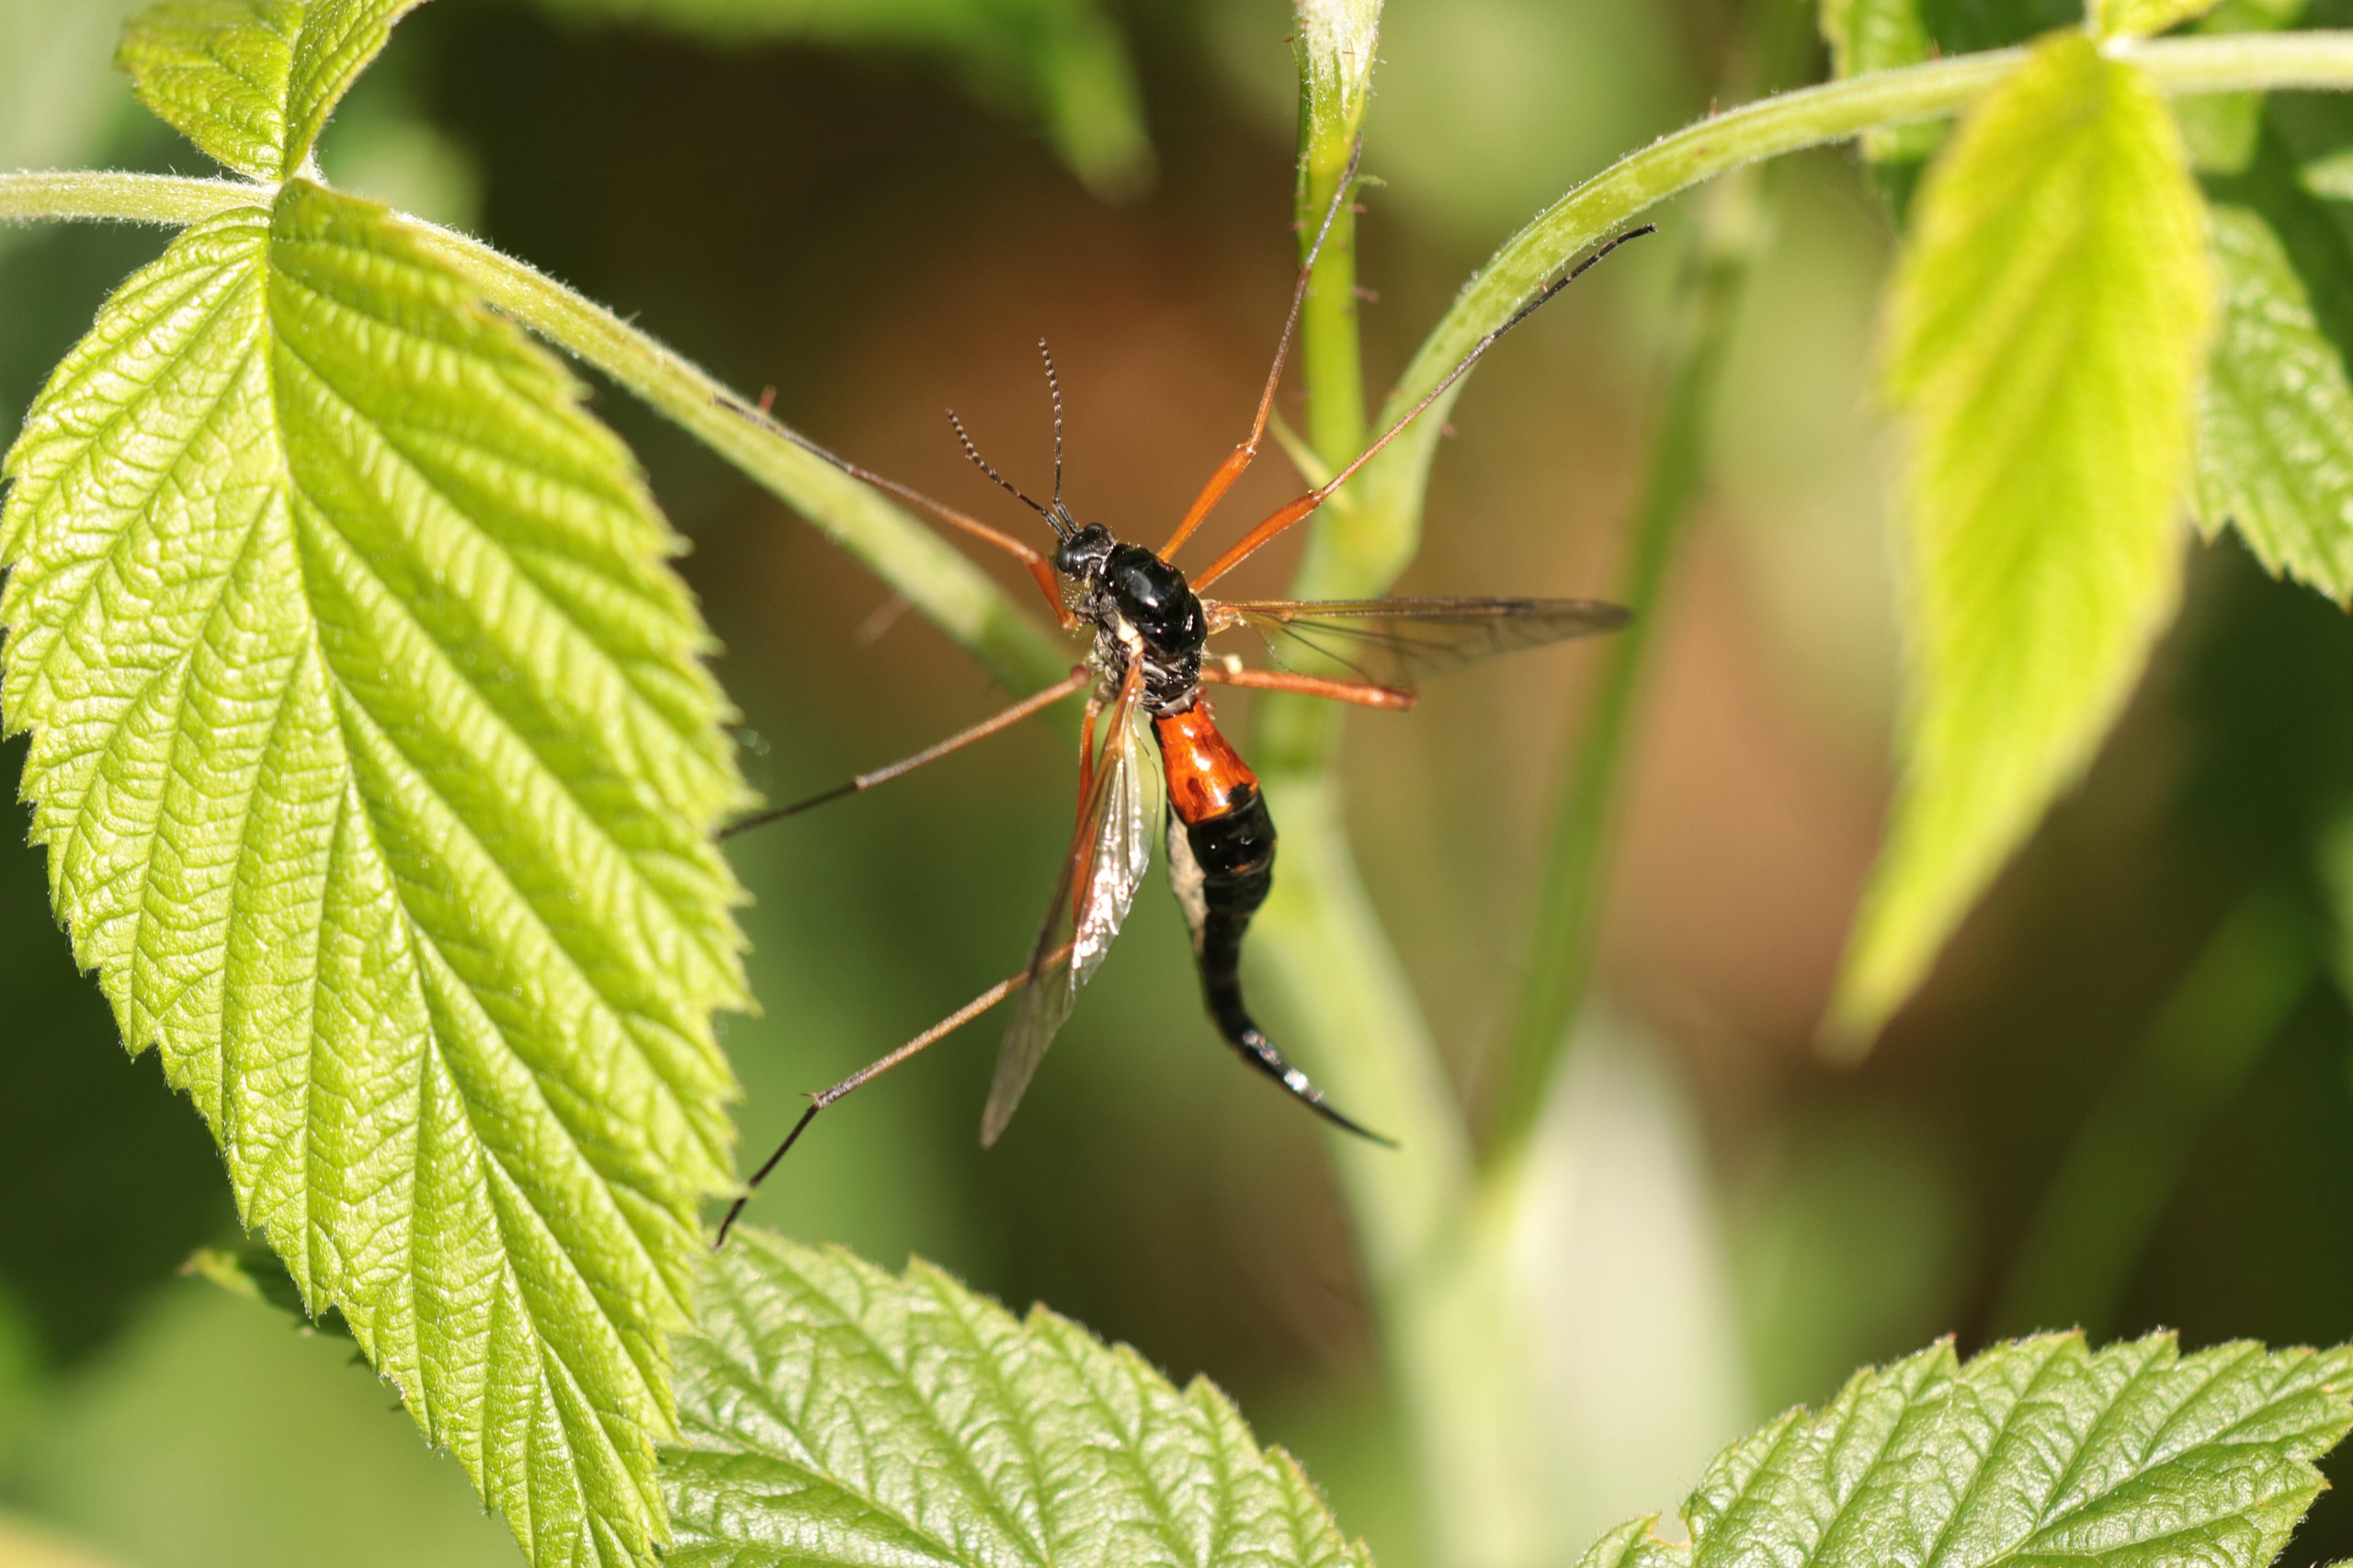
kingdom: Animalia
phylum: Arthropoda
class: Insecta
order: Diptera
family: Tipulidae
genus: Tanyptera
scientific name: Tanyptera atrata
